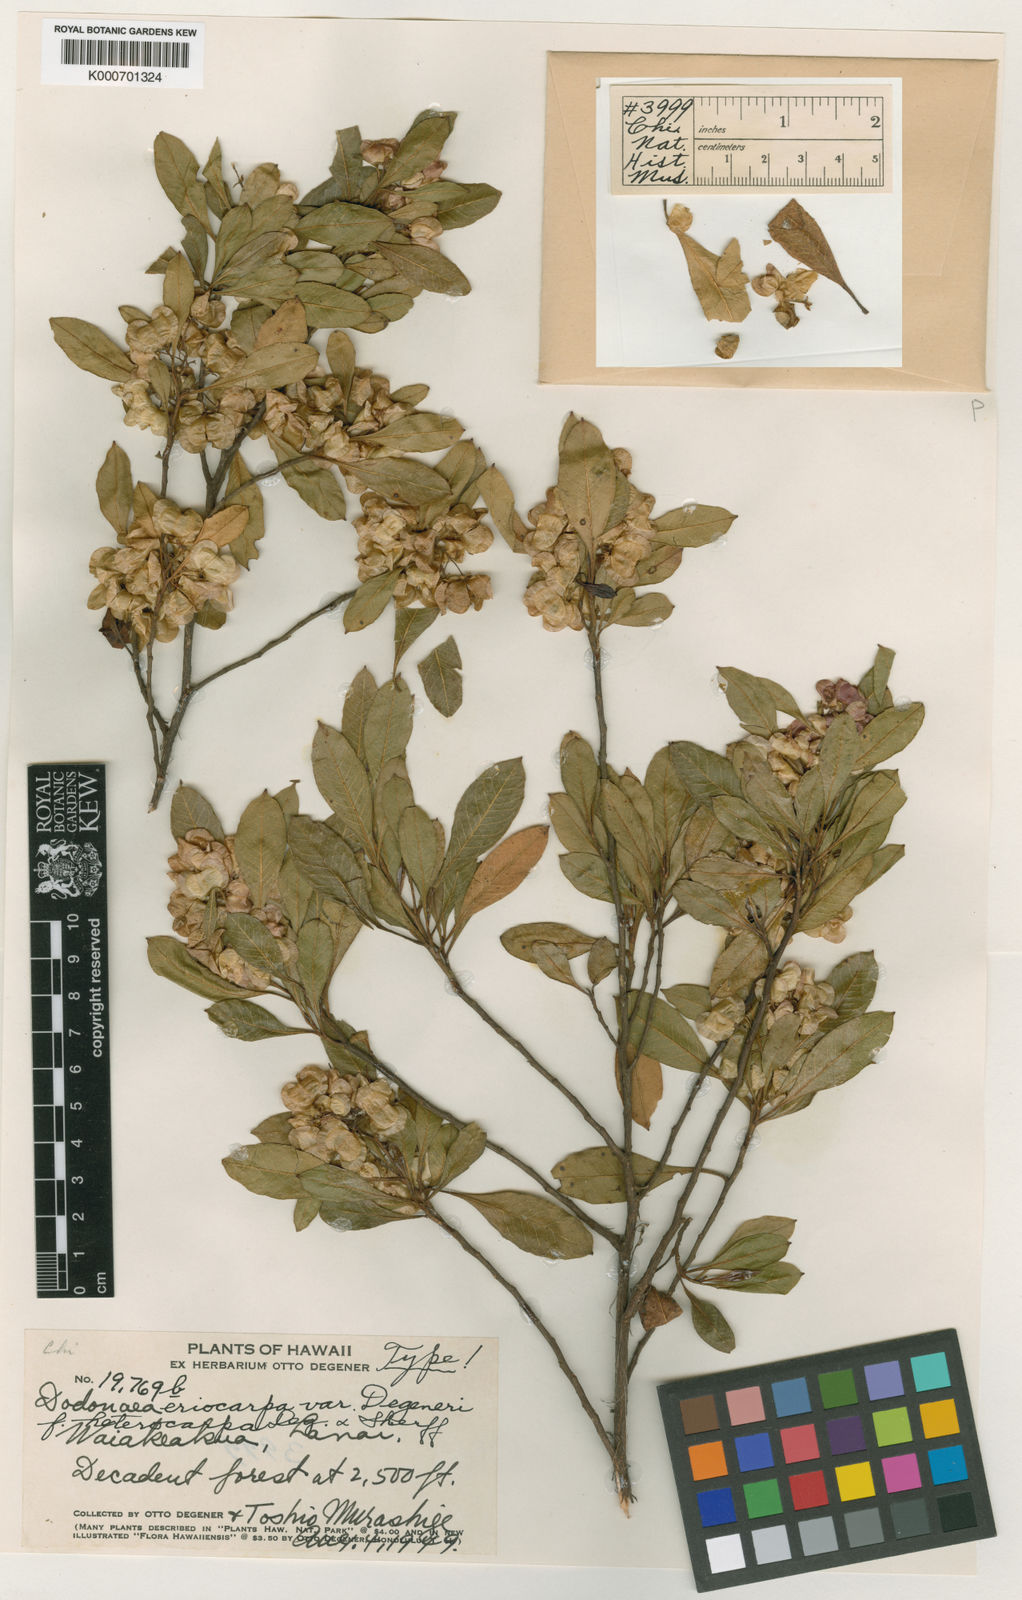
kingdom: Plantae
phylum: Tracheophyta
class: Magnoliopsida
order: Sapindales
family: Sapindaceae
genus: Dodonaea
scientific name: Dodonaea viscosa
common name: Hopbush
